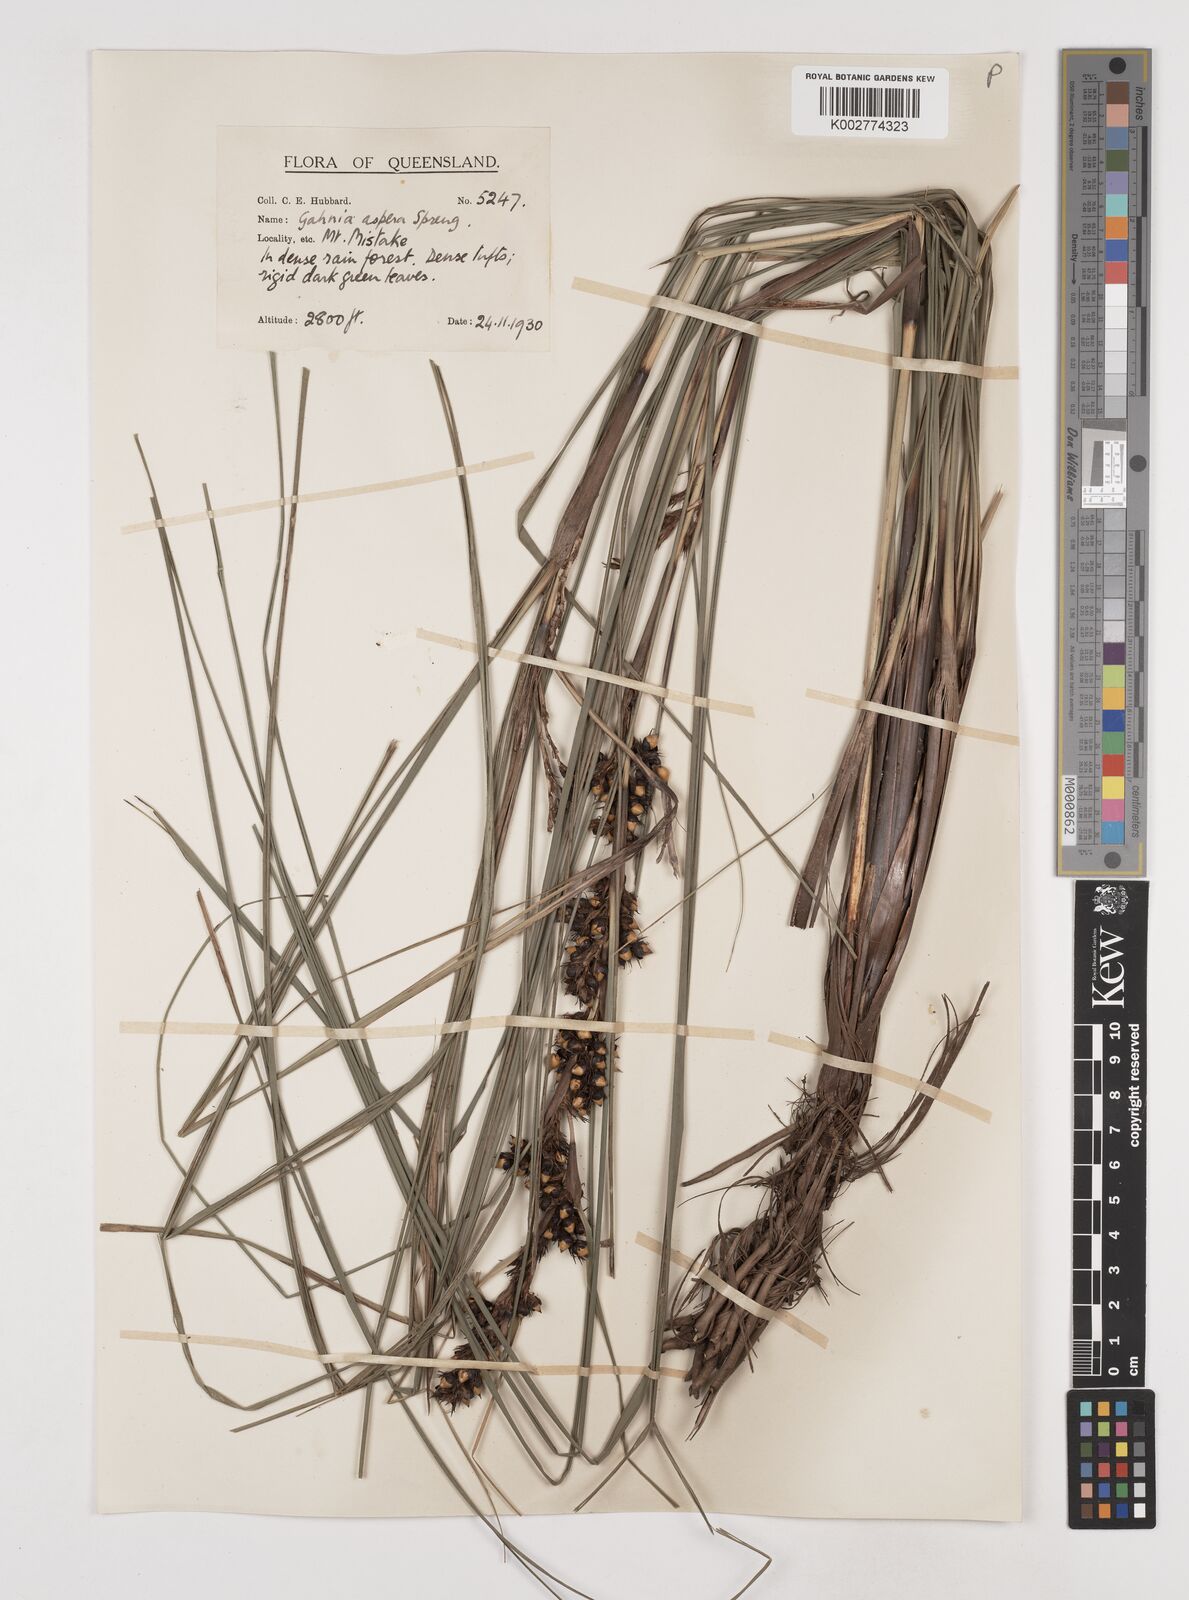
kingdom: Plantae
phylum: Tracheophyta
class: Liliopsida
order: Poales
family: Cyperaceae
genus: Gahnia
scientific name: Gahnia aspera
